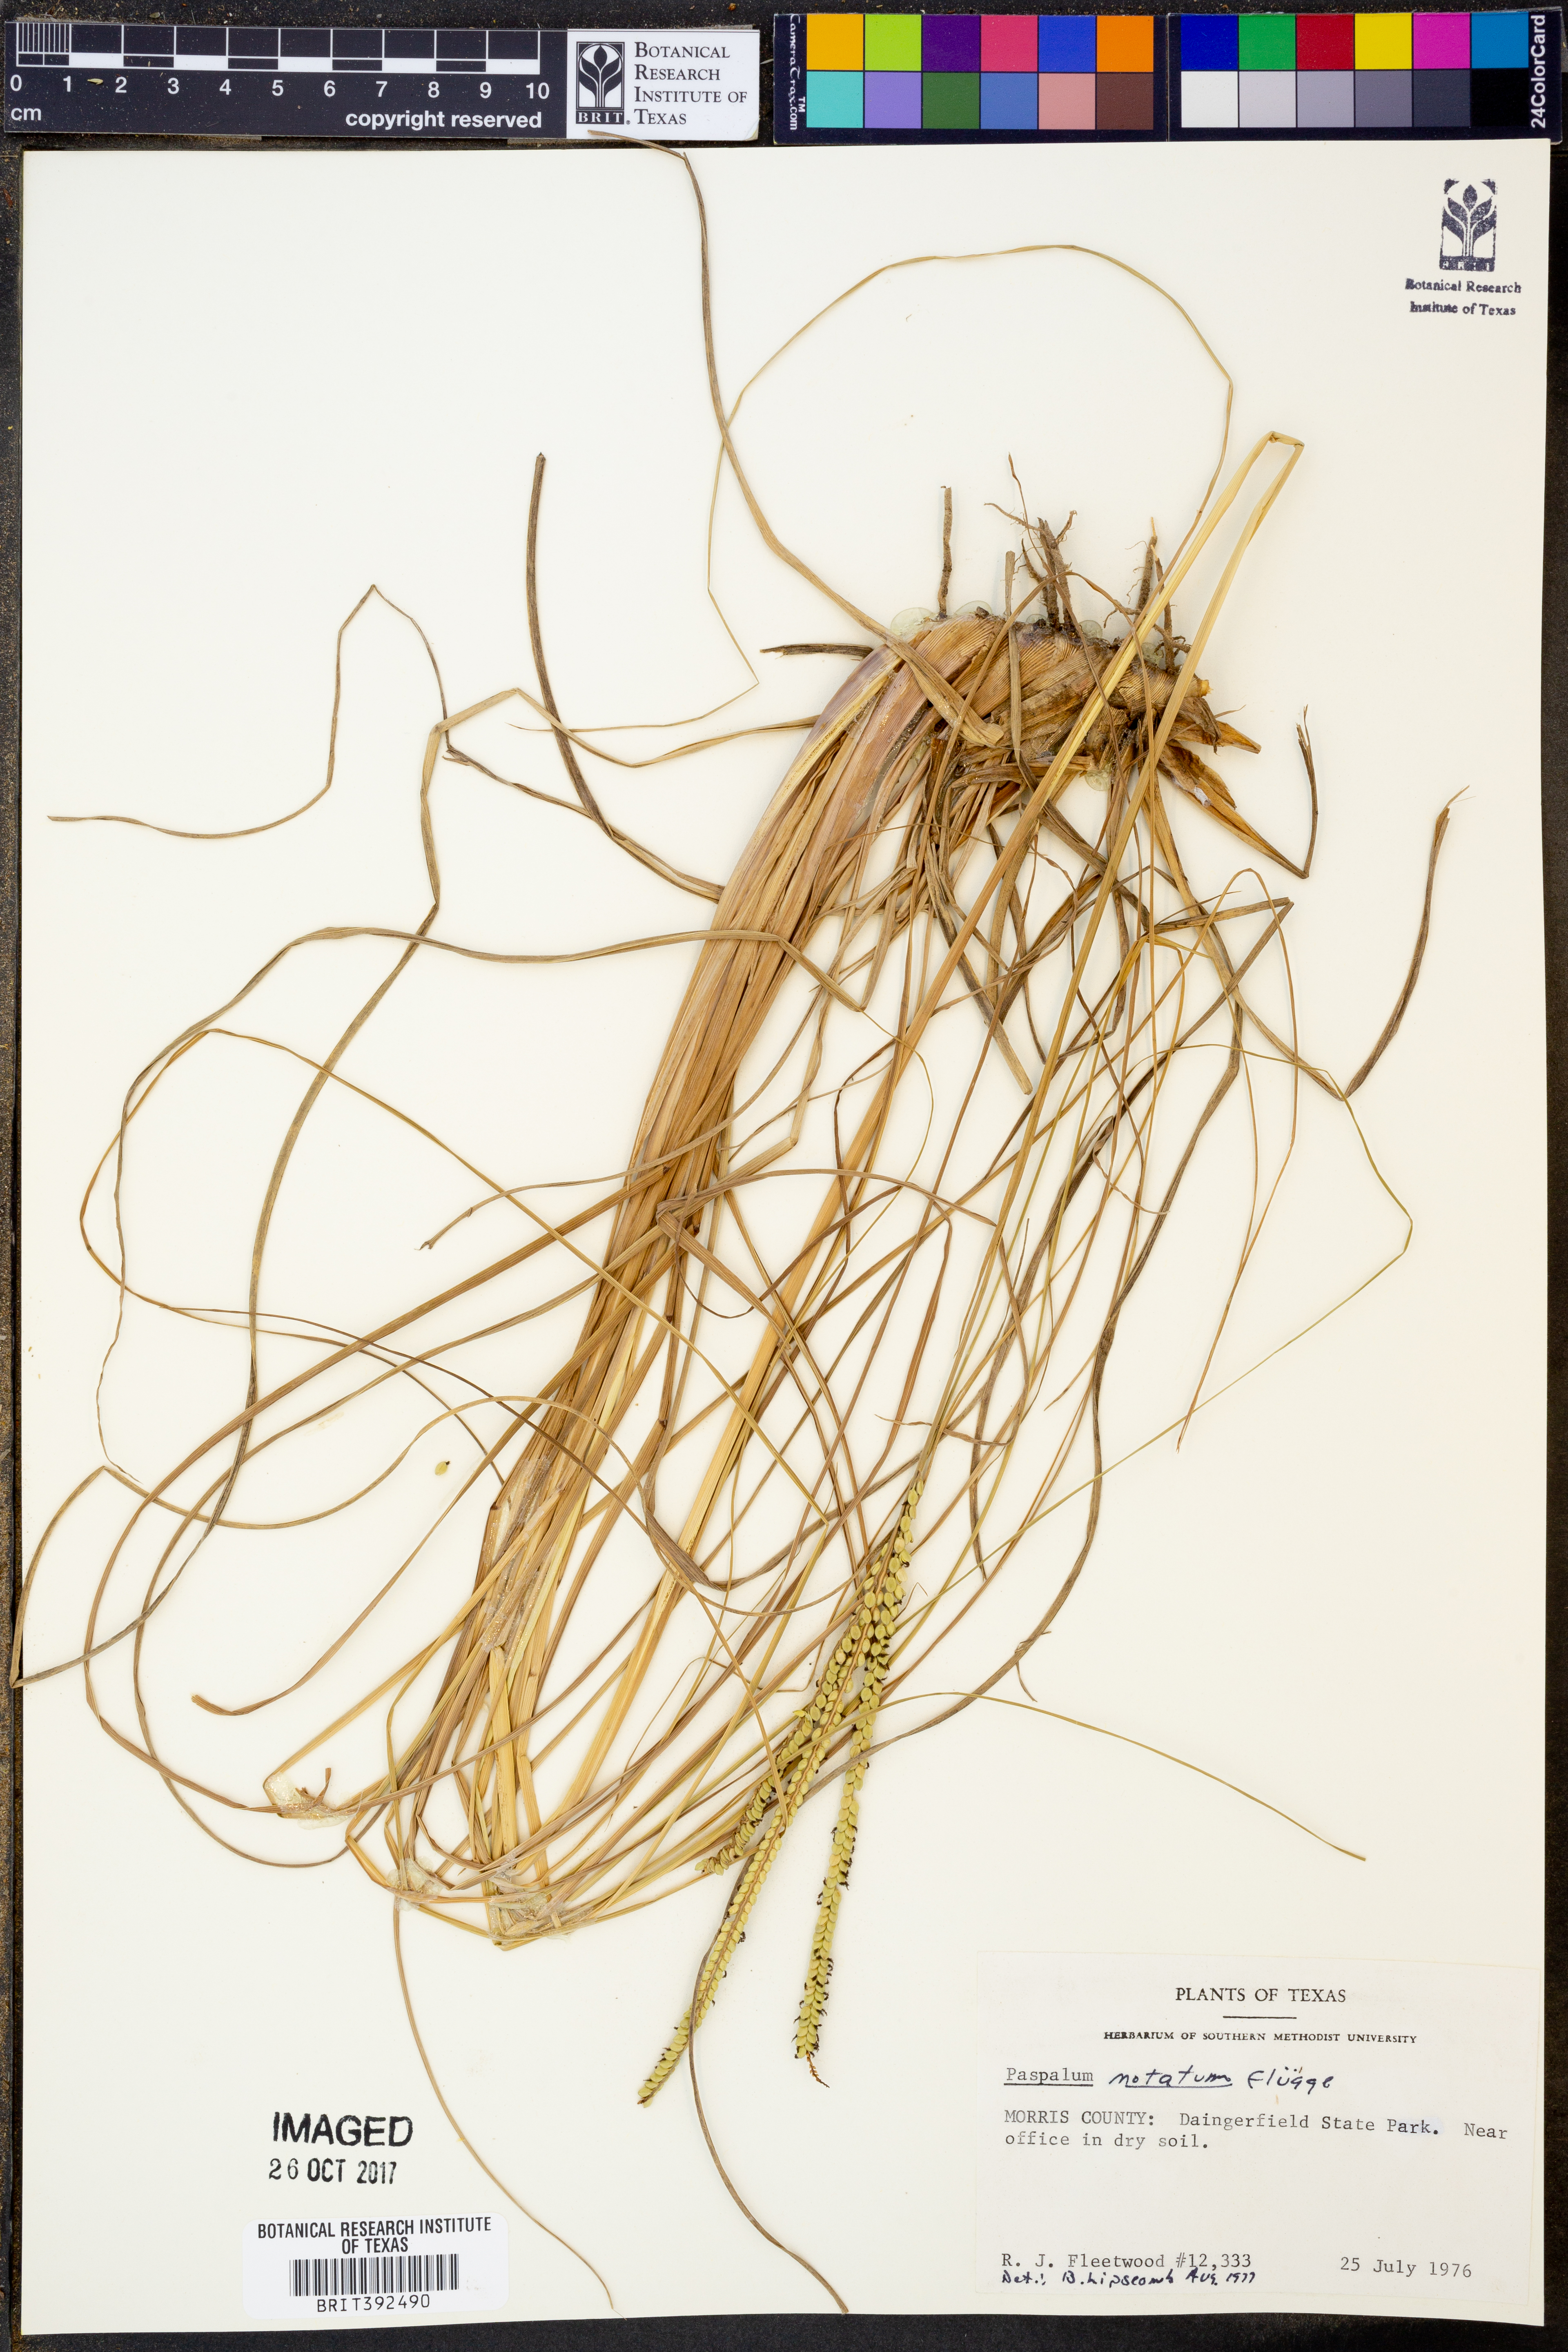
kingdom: Plantae
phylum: Tracheophyta
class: Liliopsida
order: Poales
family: Poaceae
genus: Paspalum
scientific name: Paspalum notatum
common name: Bahiagrass
